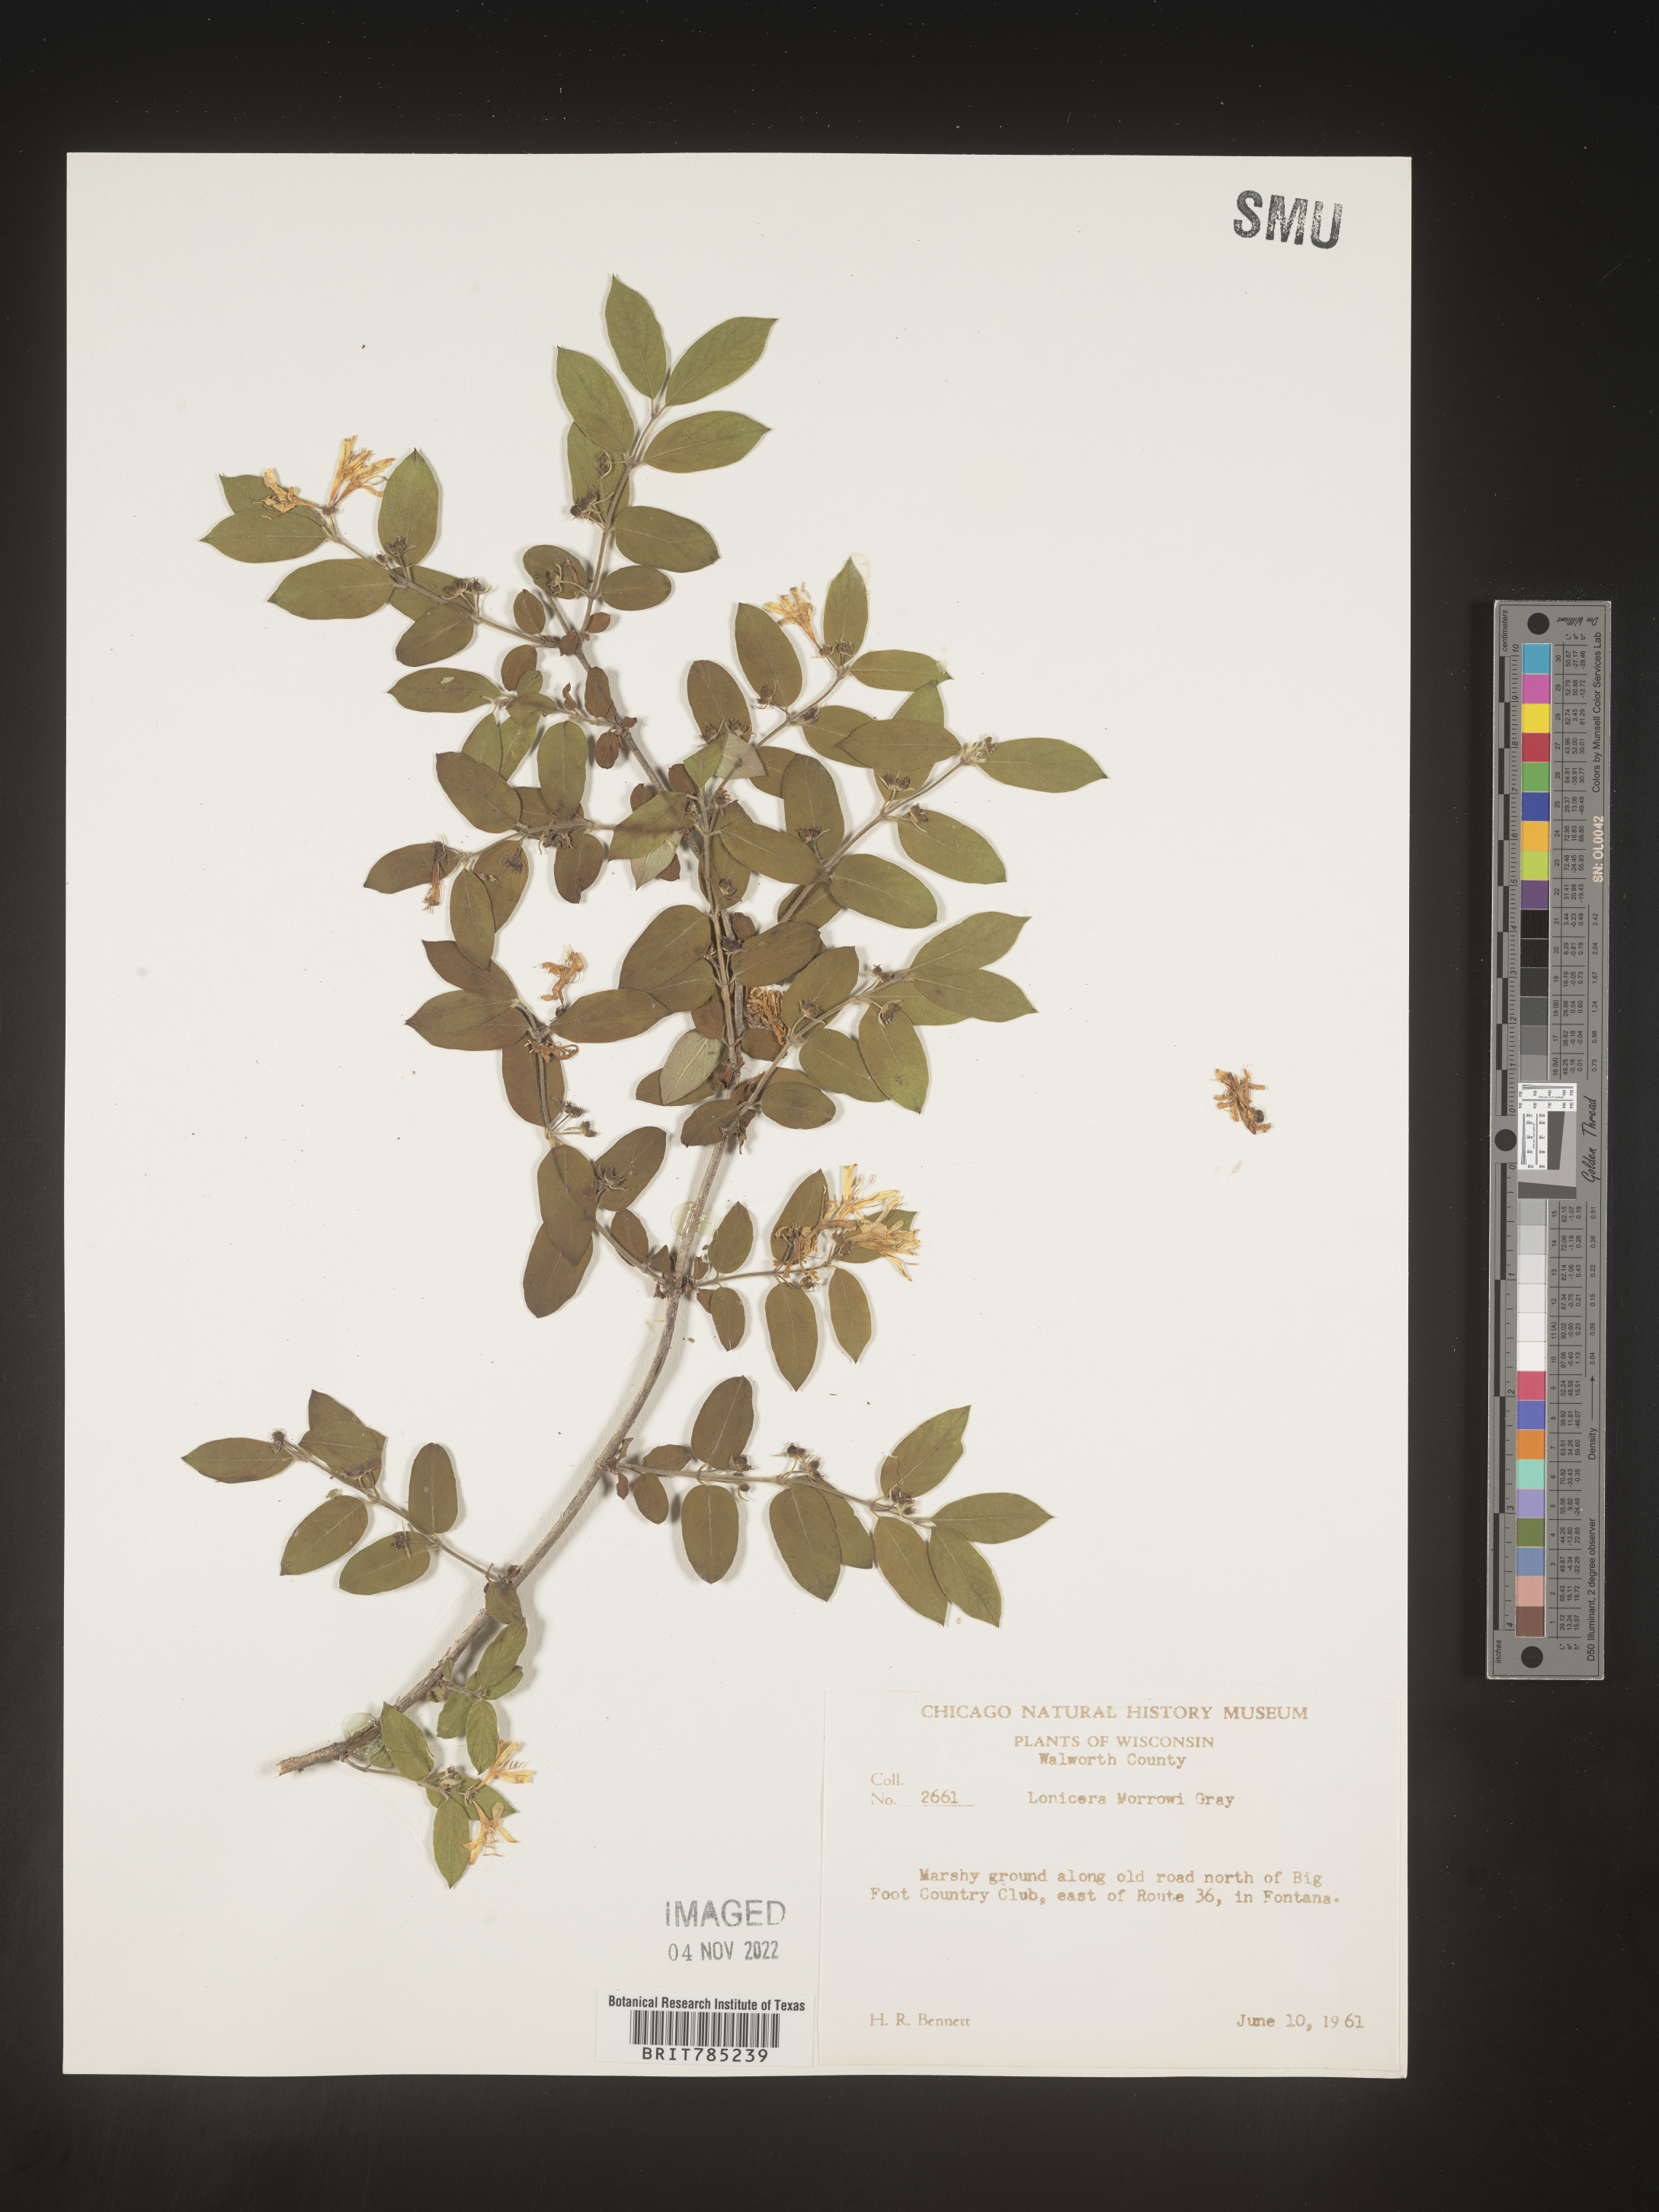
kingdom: Plantae
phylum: Tracheophyta
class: Magnoliopsida
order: Dipsacales
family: Caprifoliaceae
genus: Lonicera
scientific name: Lonicera
